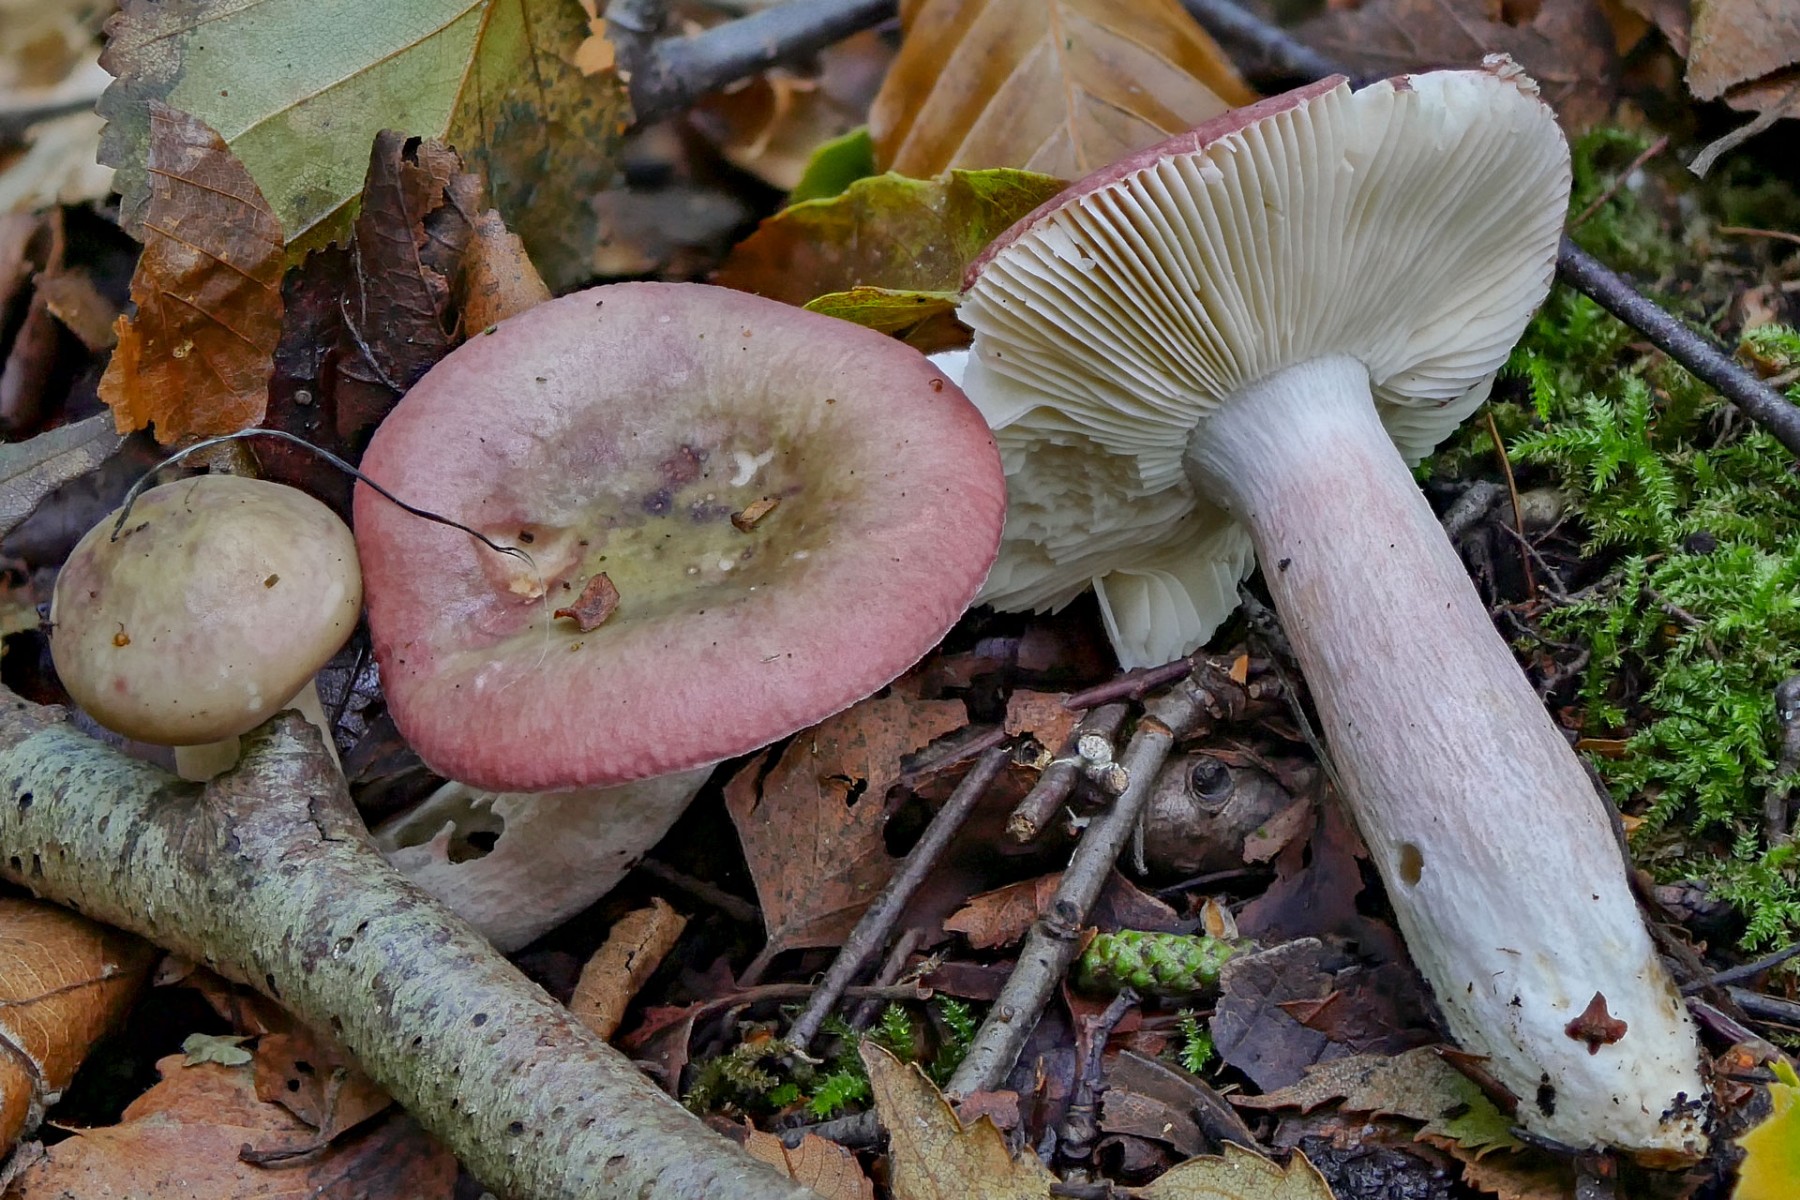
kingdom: Fungi
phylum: Basidiomycota
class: Agaricomycetes
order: Russulales
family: Russulaceae
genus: Russula
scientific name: Russula depallens
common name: falmende skørhat
